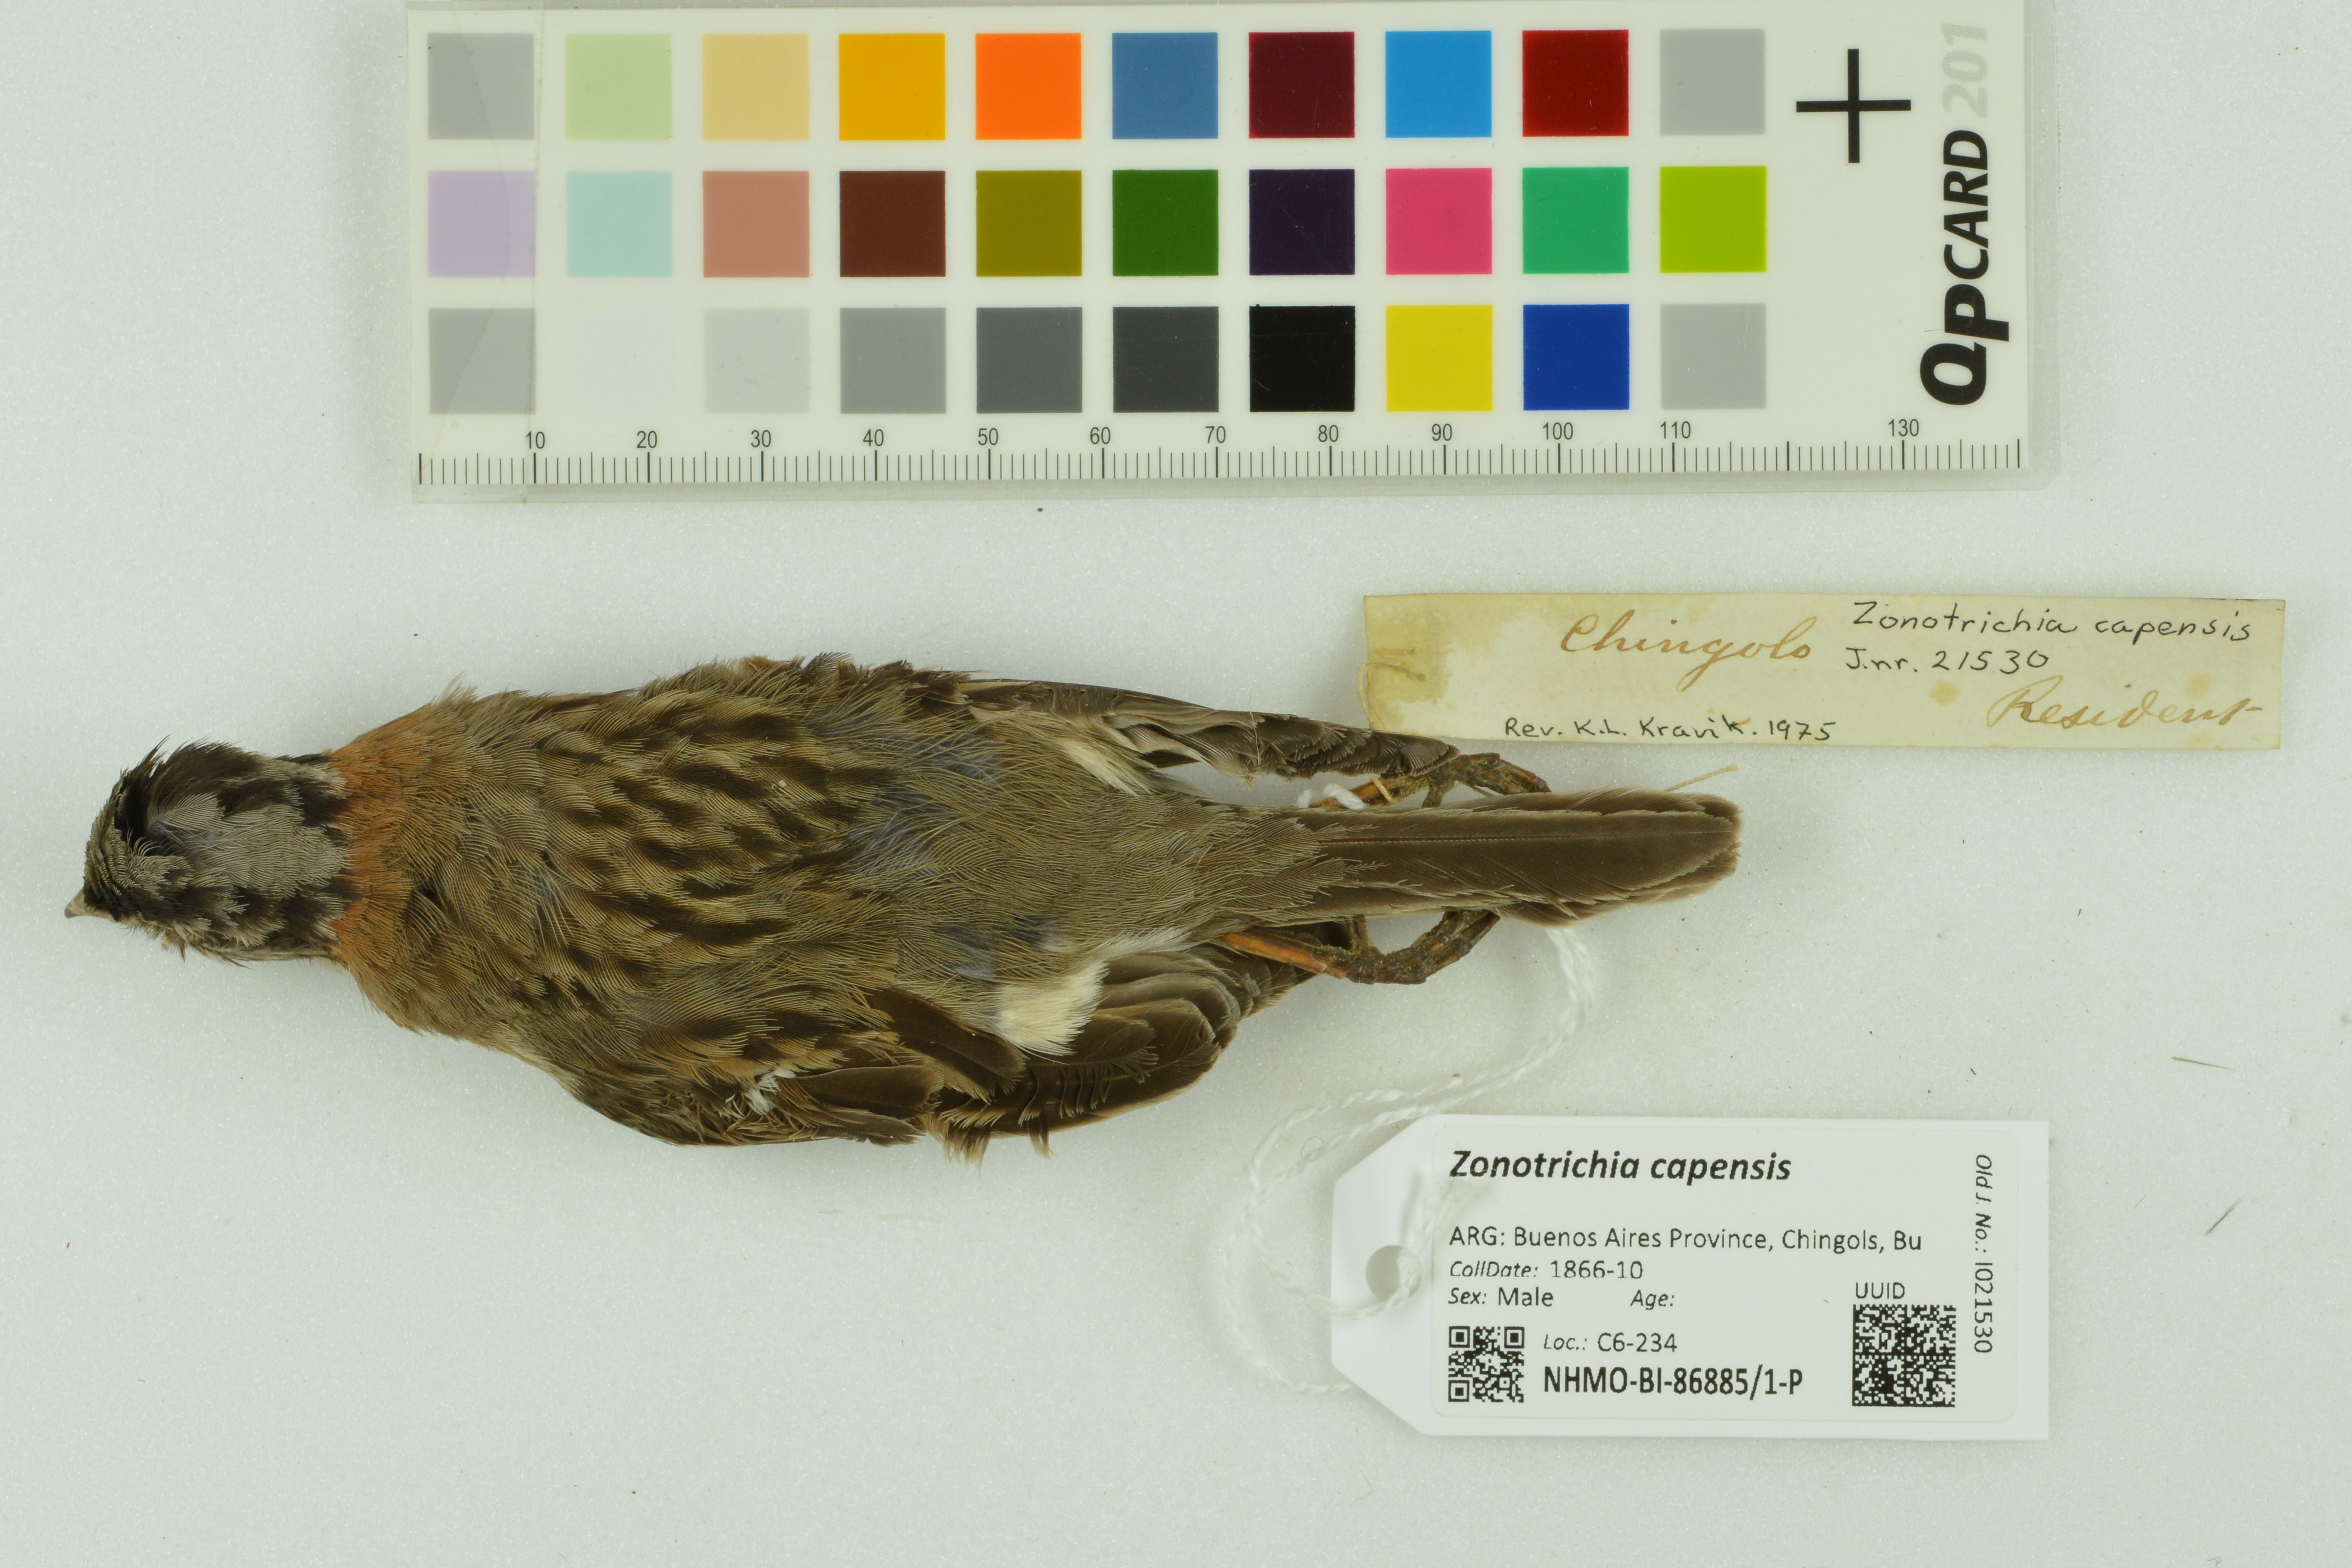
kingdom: Animalia
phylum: Chordata
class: Aves
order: Passeriformes
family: Passerellidae
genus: Zonotrichia
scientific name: Zonotrichia capensis
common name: Rufous-collared sparrow
